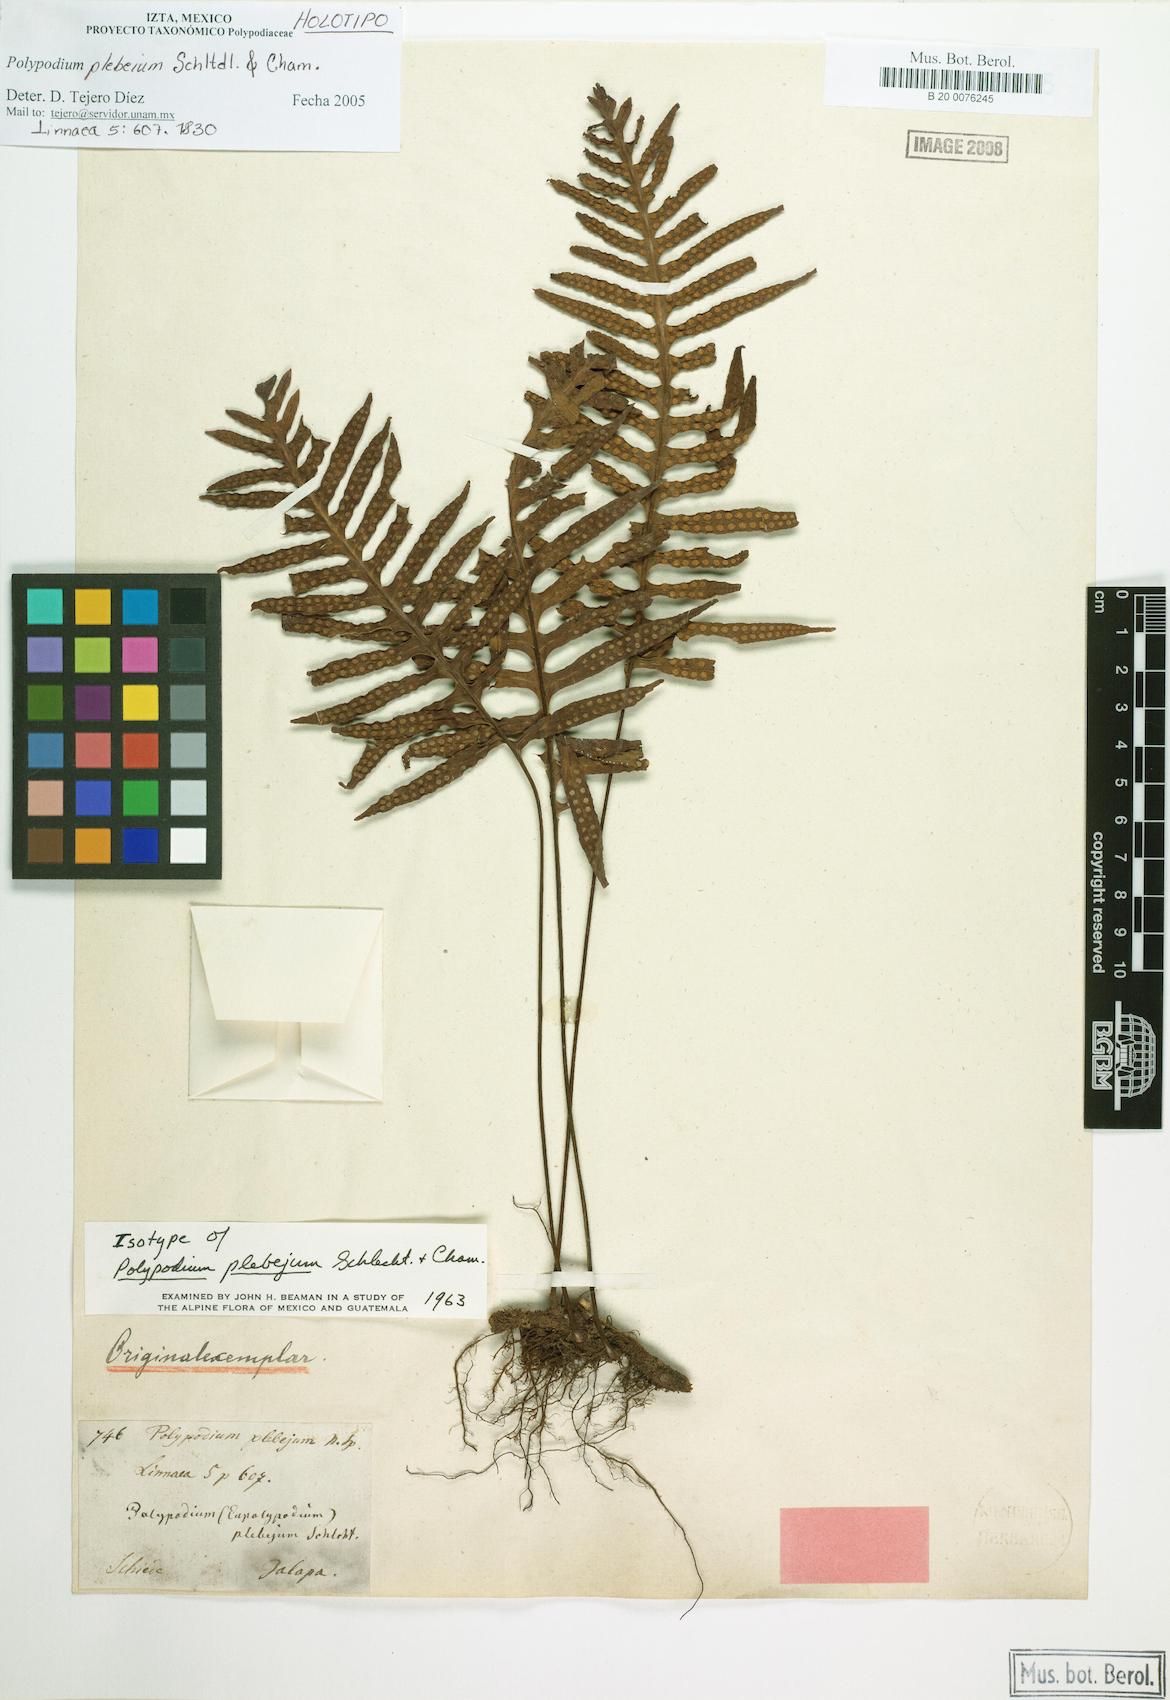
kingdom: Plantae
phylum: Tracheophyta
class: Polypodiopsida
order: Polypodiales
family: Polypodiaceae
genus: Pleopeltis
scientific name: Pleopeltis plebeia
